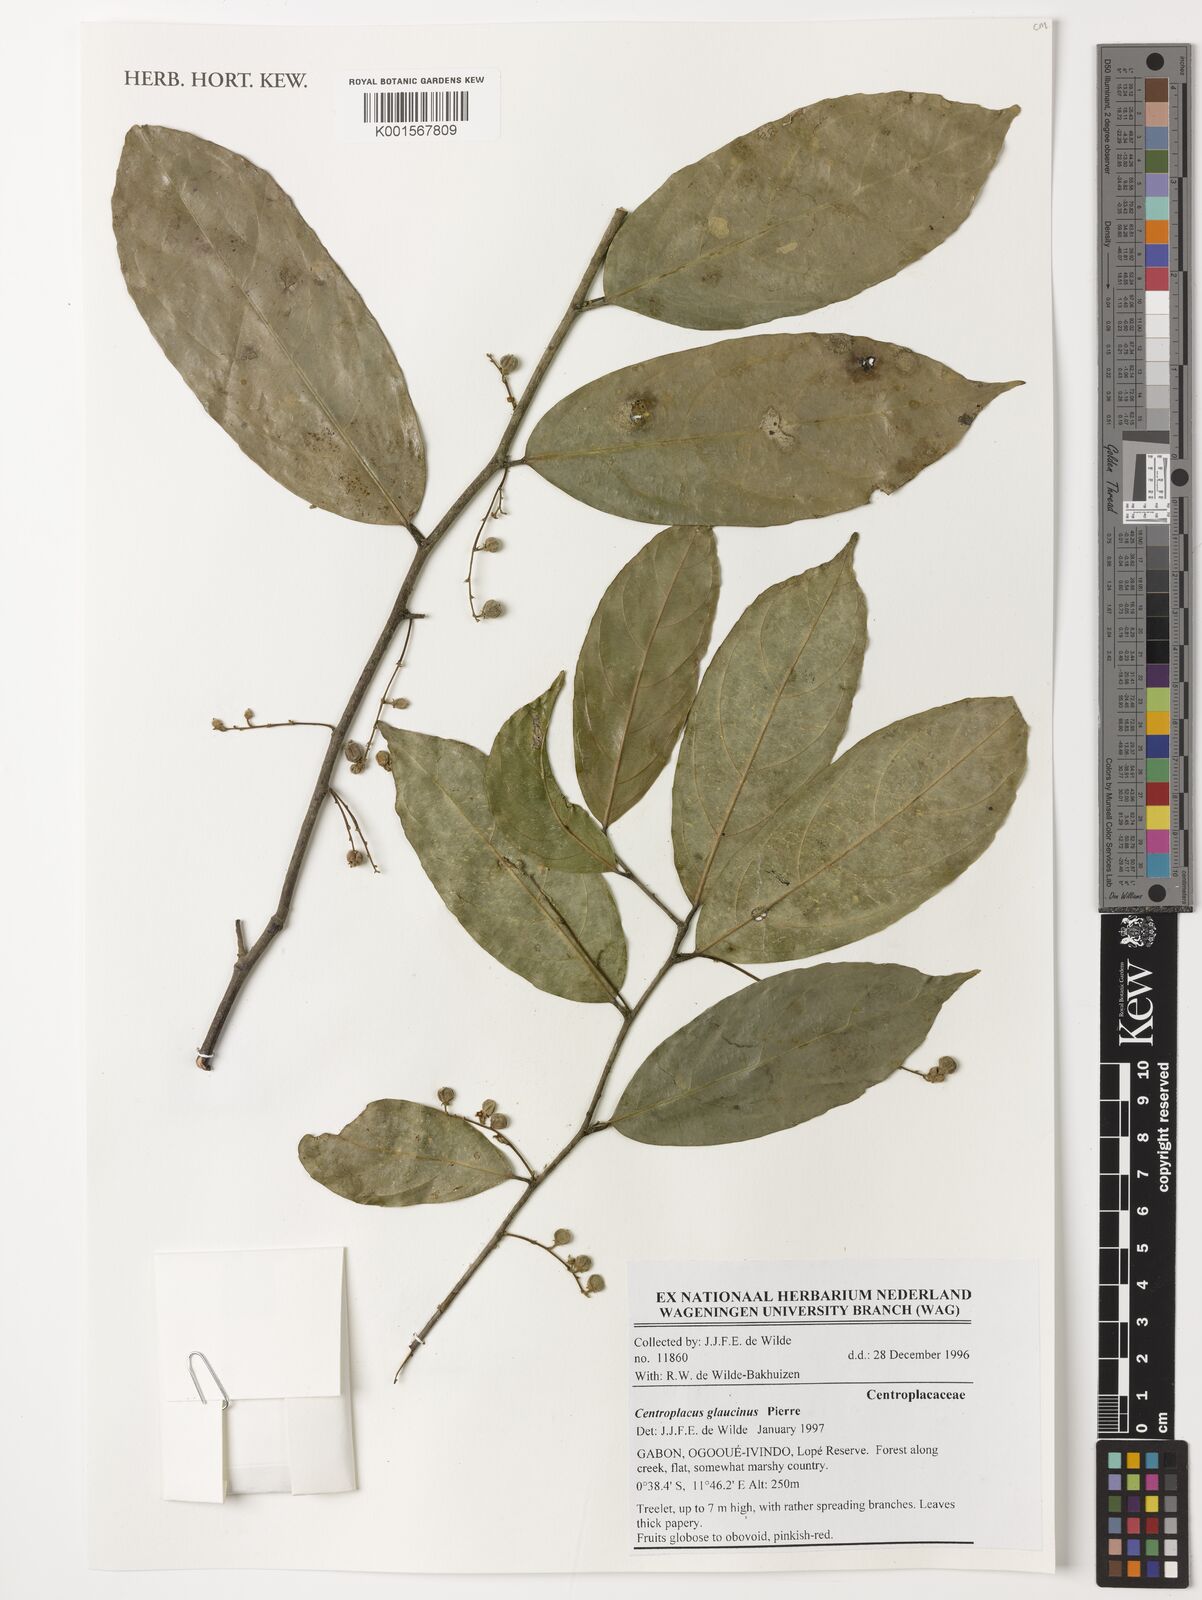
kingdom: Plantae
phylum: Tracheophyta
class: Magnoliopsida
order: Malpighiales
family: Centroplacaceae
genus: Centroplacus
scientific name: Centroplacus glaucinus
